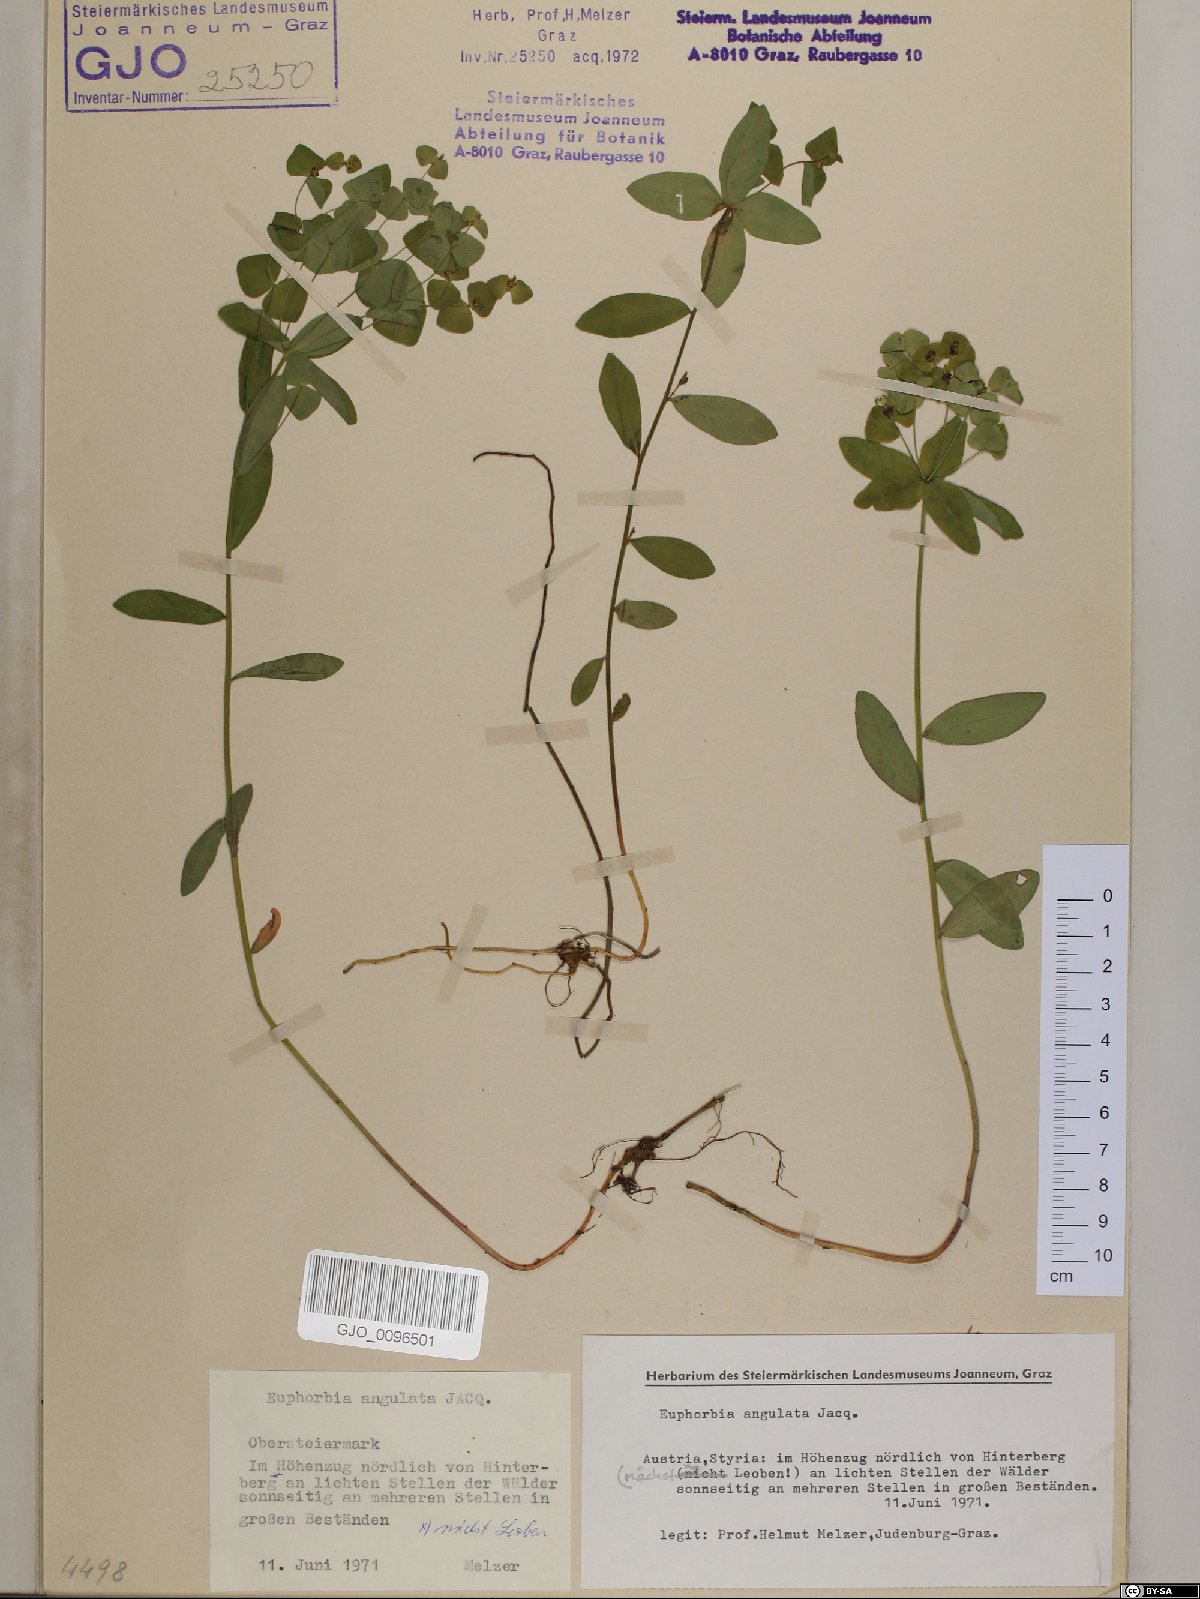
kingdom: Plantae
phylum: Tracheophyta
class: Magnoliopsida
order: Malpighiales
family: Euphorbiaceae
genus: Euphorbia
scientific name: Euphorbia angulata
